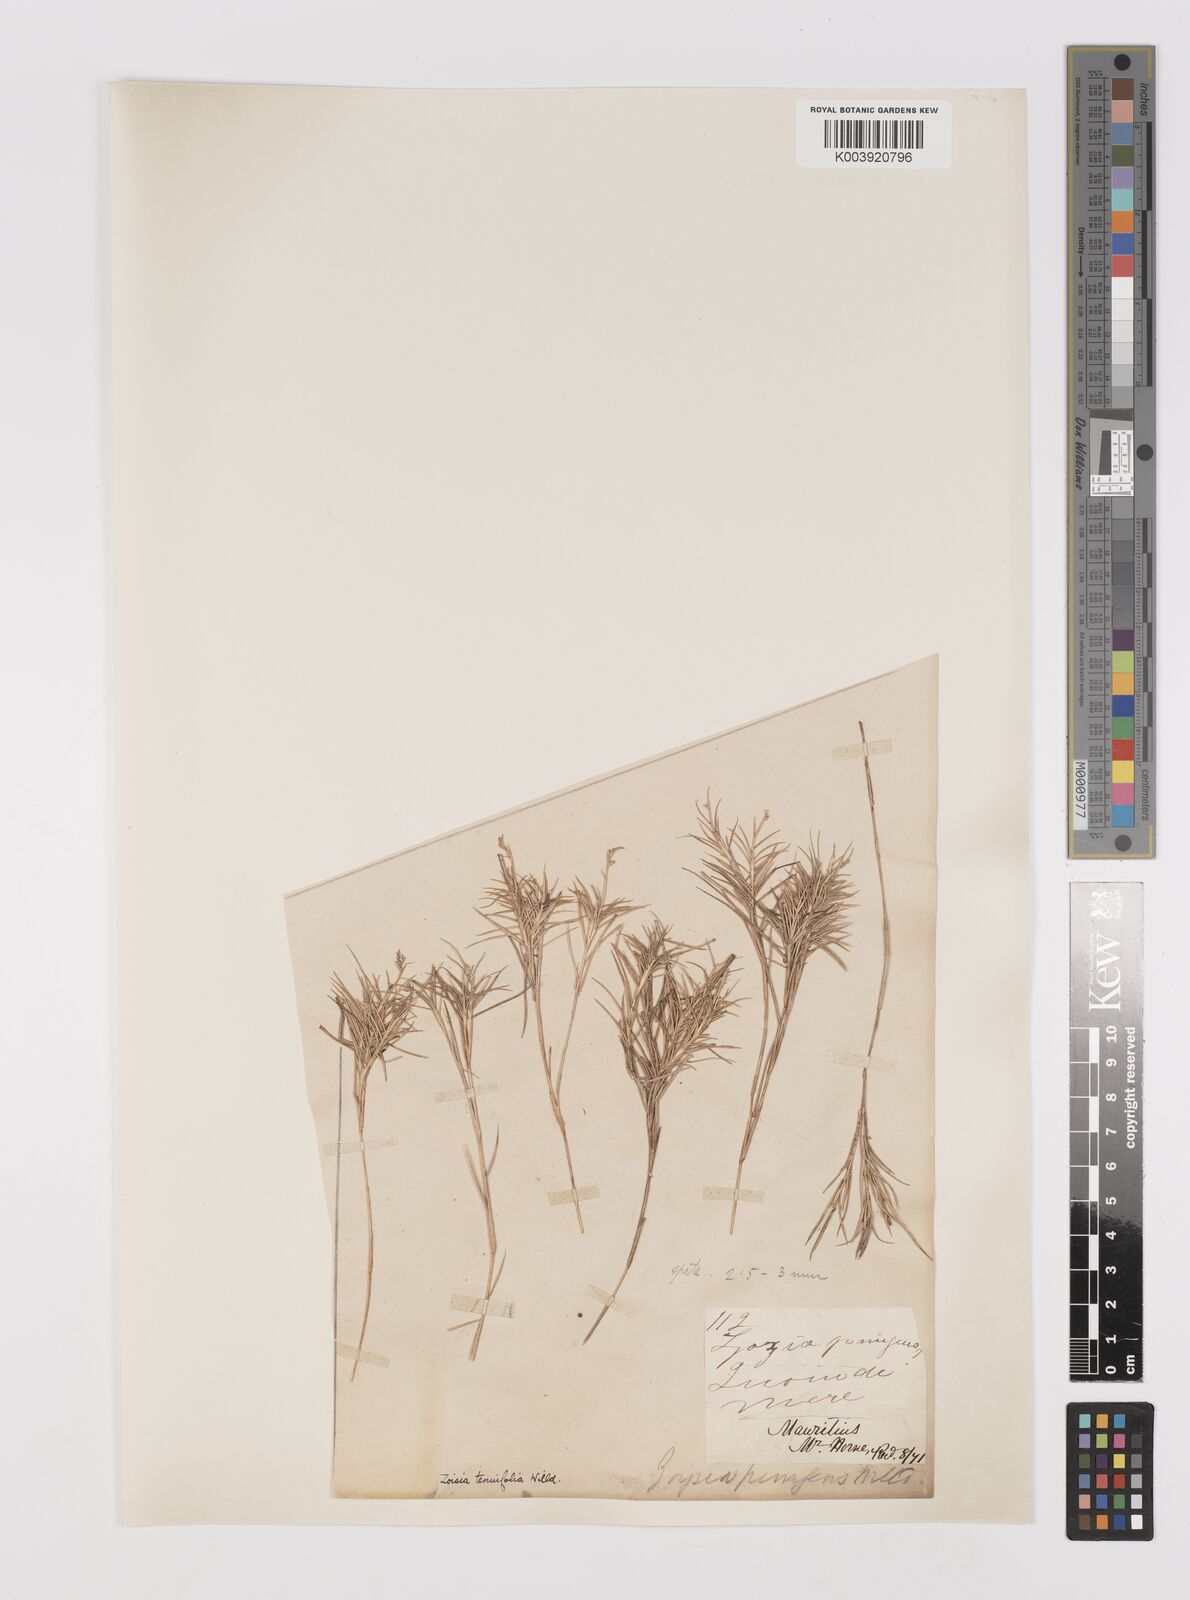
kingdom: Plantae
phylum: Tracheophyta
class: Liliopsida
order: Poales
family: Poaceae
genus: Zoysia
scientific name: Zoysia matrella
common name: Manila grass
